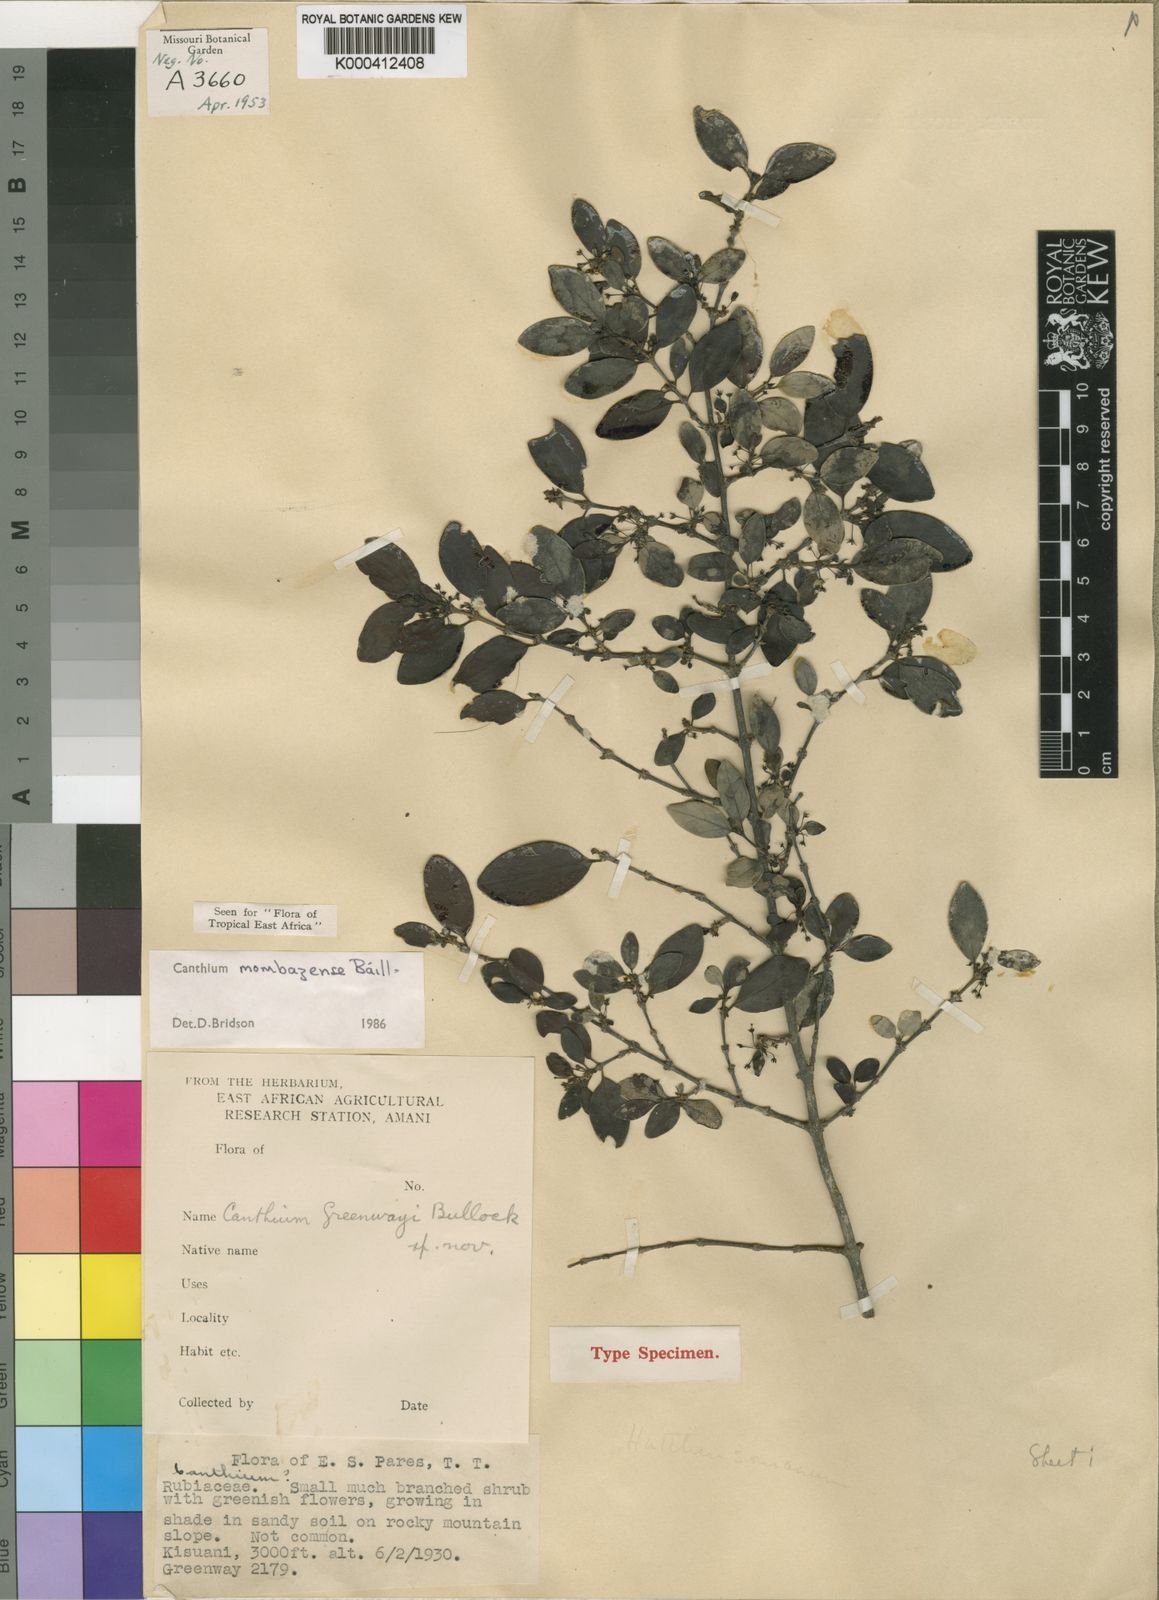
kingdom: Plantae
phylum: Tracheophyta
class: Magnoliopsida
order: Gentianales
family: Rubiaceae
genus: Bullockia
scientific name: Bullockia mombazensis
